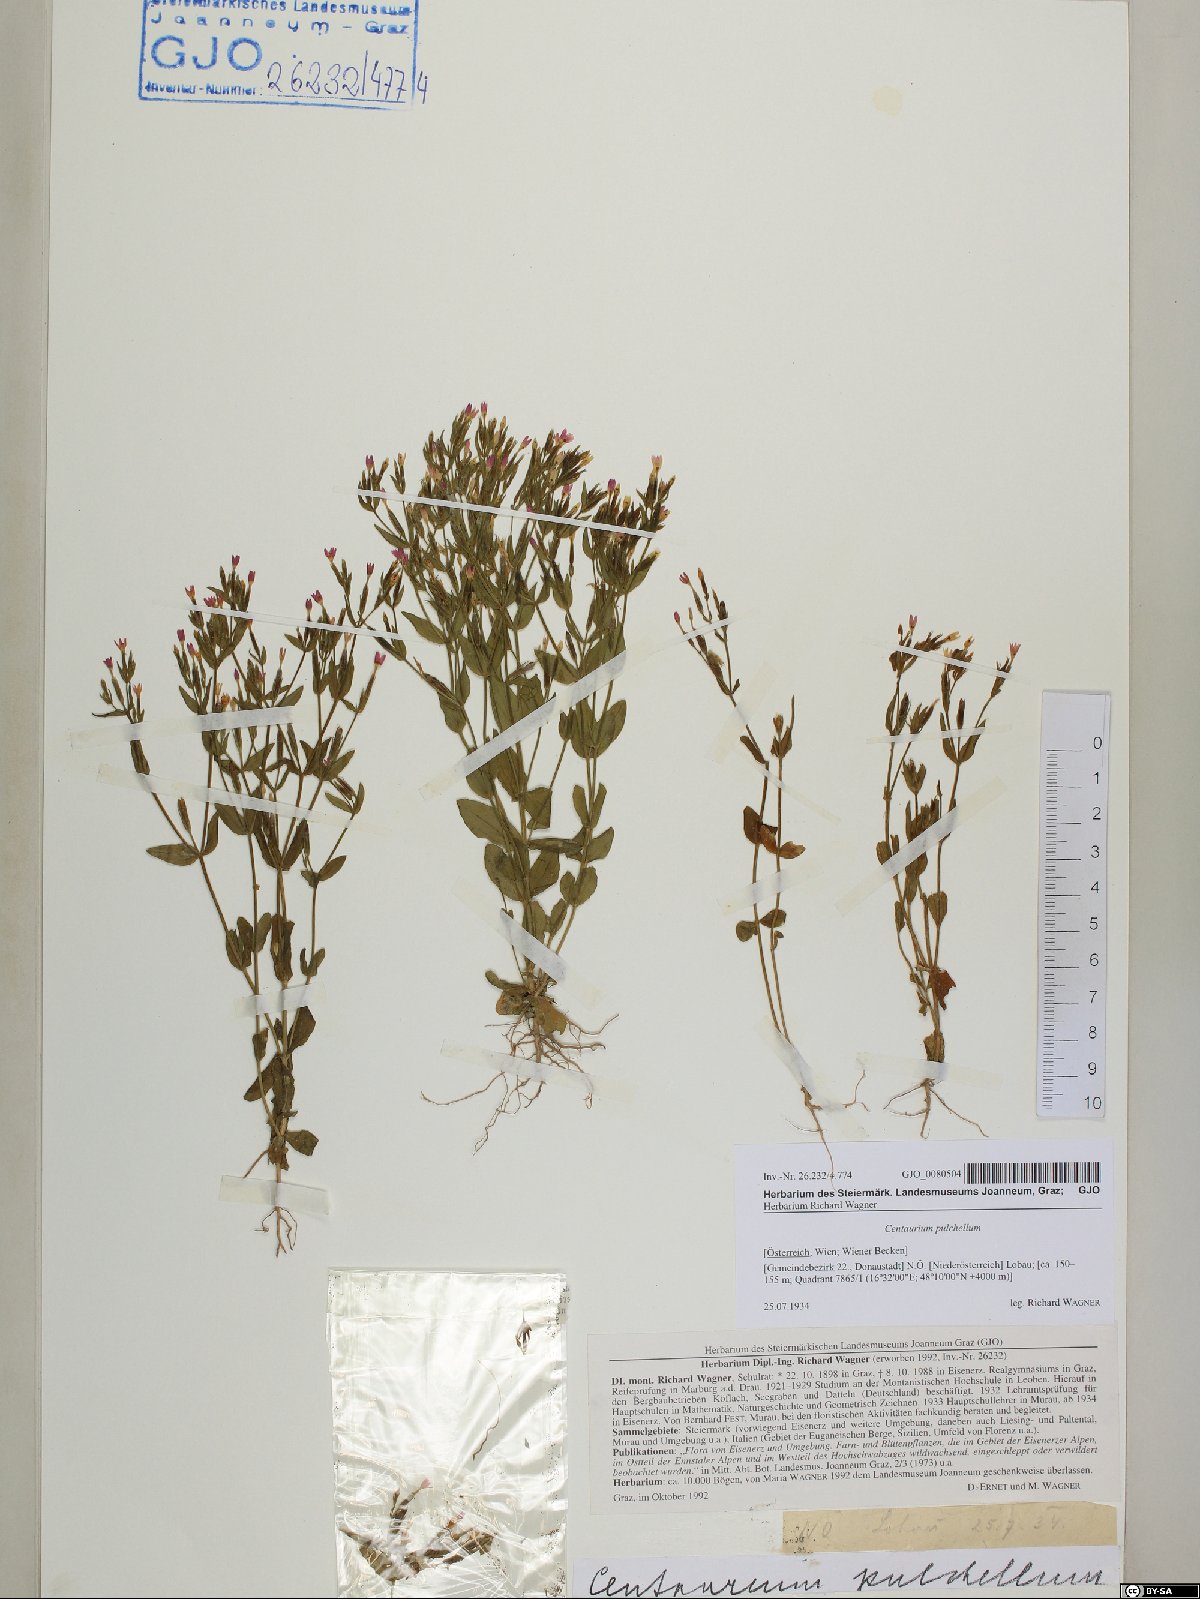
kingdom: Plantae
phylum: Tracheophyta
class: Magnoliopsida
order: Gentianales
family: Gentianaceae
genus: Centaurium
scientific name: Centaurium pulchellum
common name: Lesser centaury
